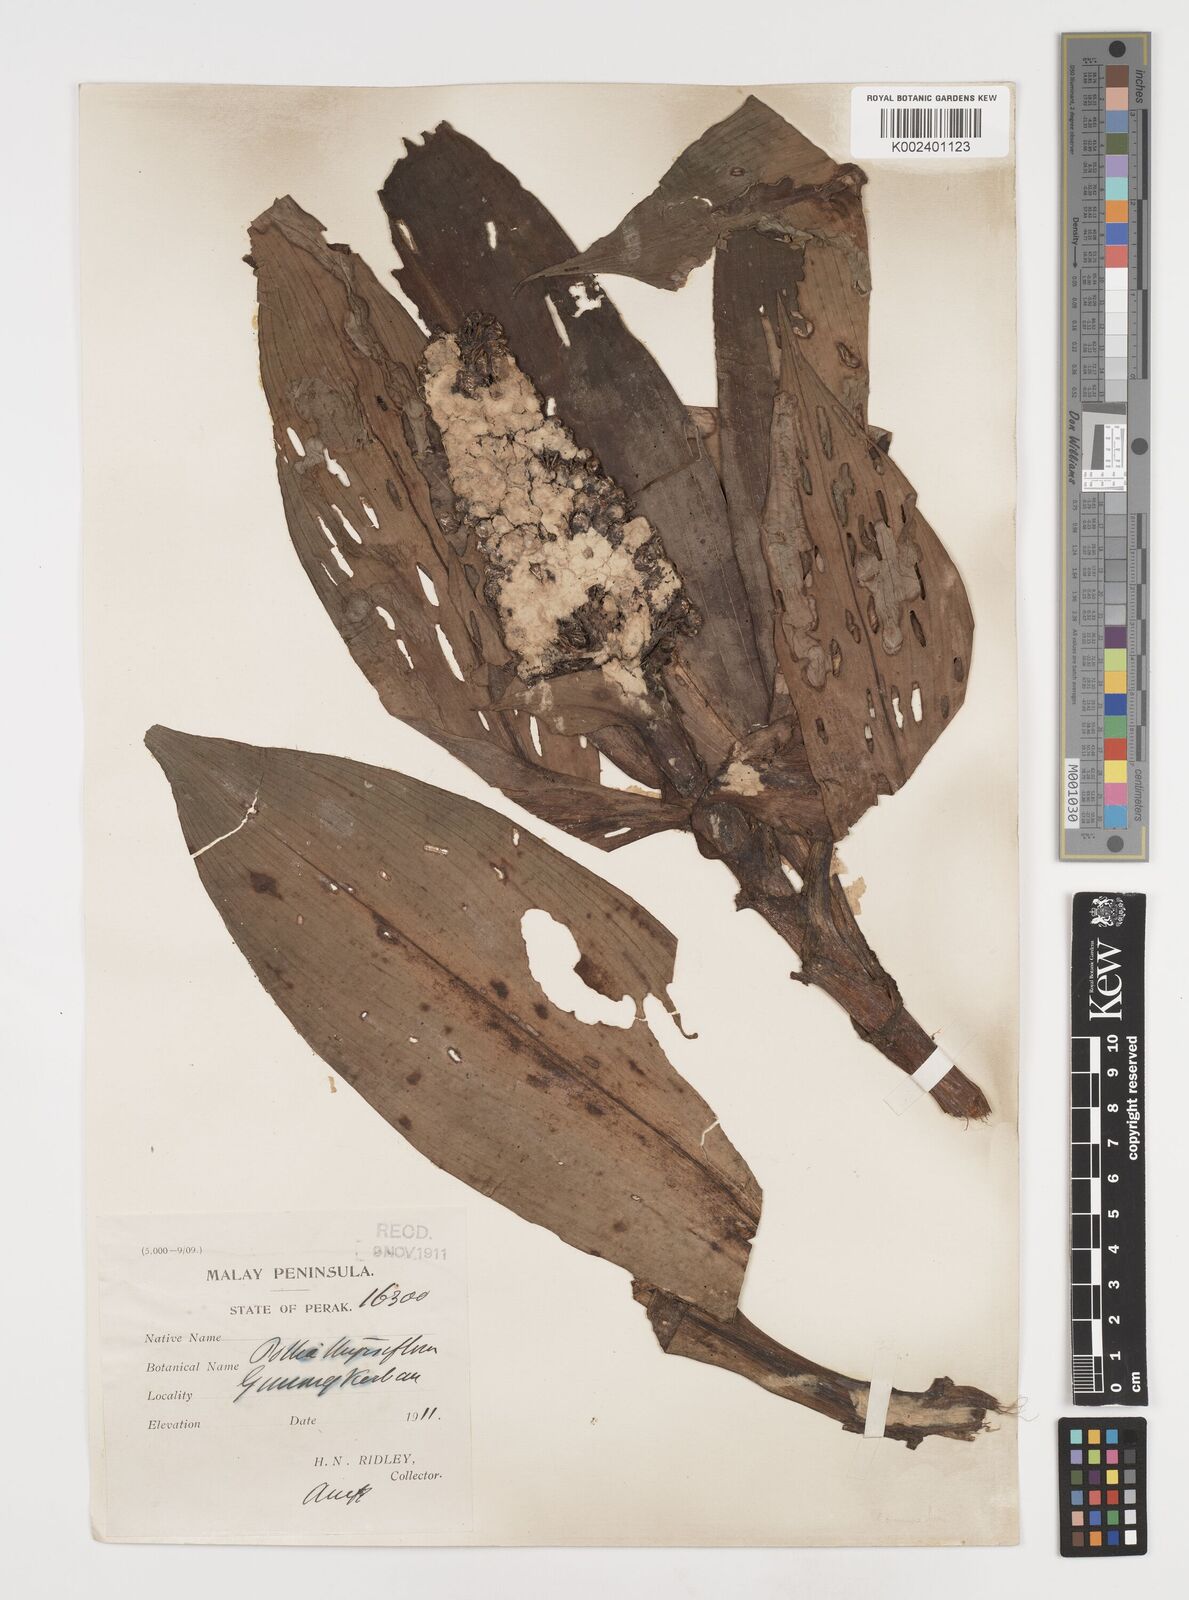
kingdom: Plantae
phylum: Tracheophyta
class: Liliopsida
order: Commelinales
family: Commelinaceae
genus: Pollia
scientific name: Pollia thyrsiflora
